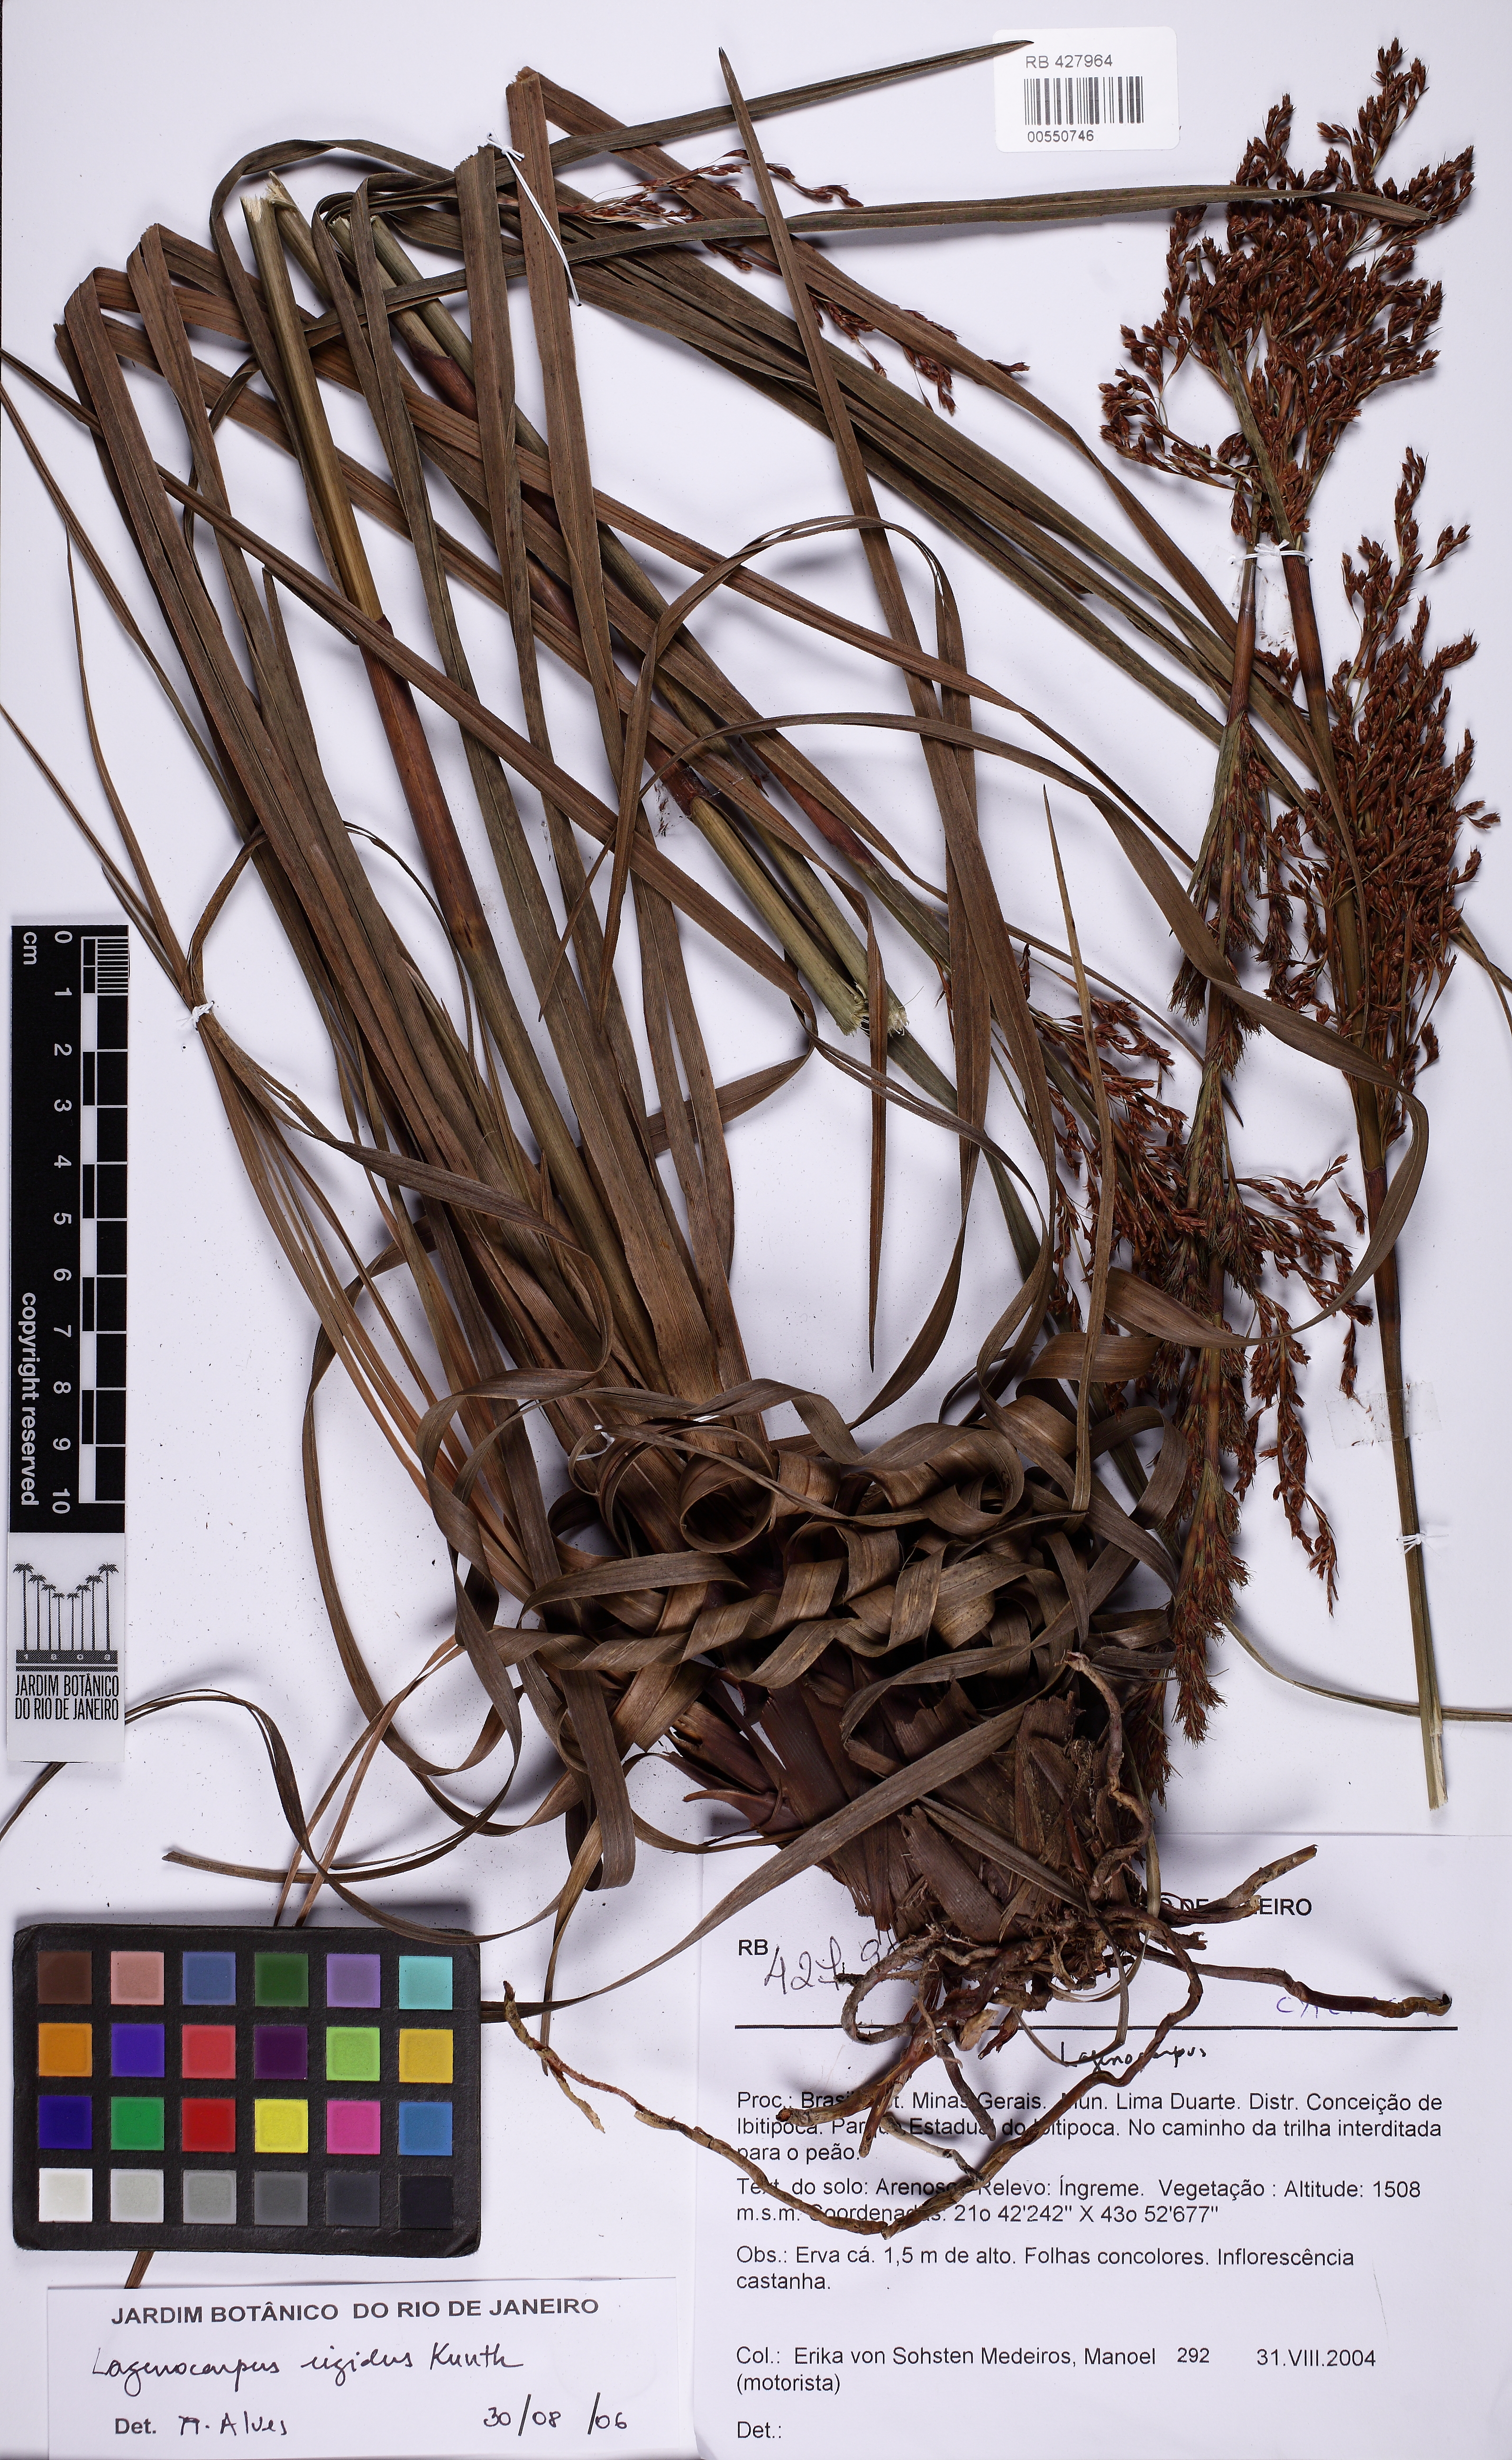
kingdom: Plantae
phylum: Tracheophyta
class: Liliopsida
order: Poales
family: Cyperaceae
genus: Lagenocarpus
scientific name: Lagenocarpus rigidus
